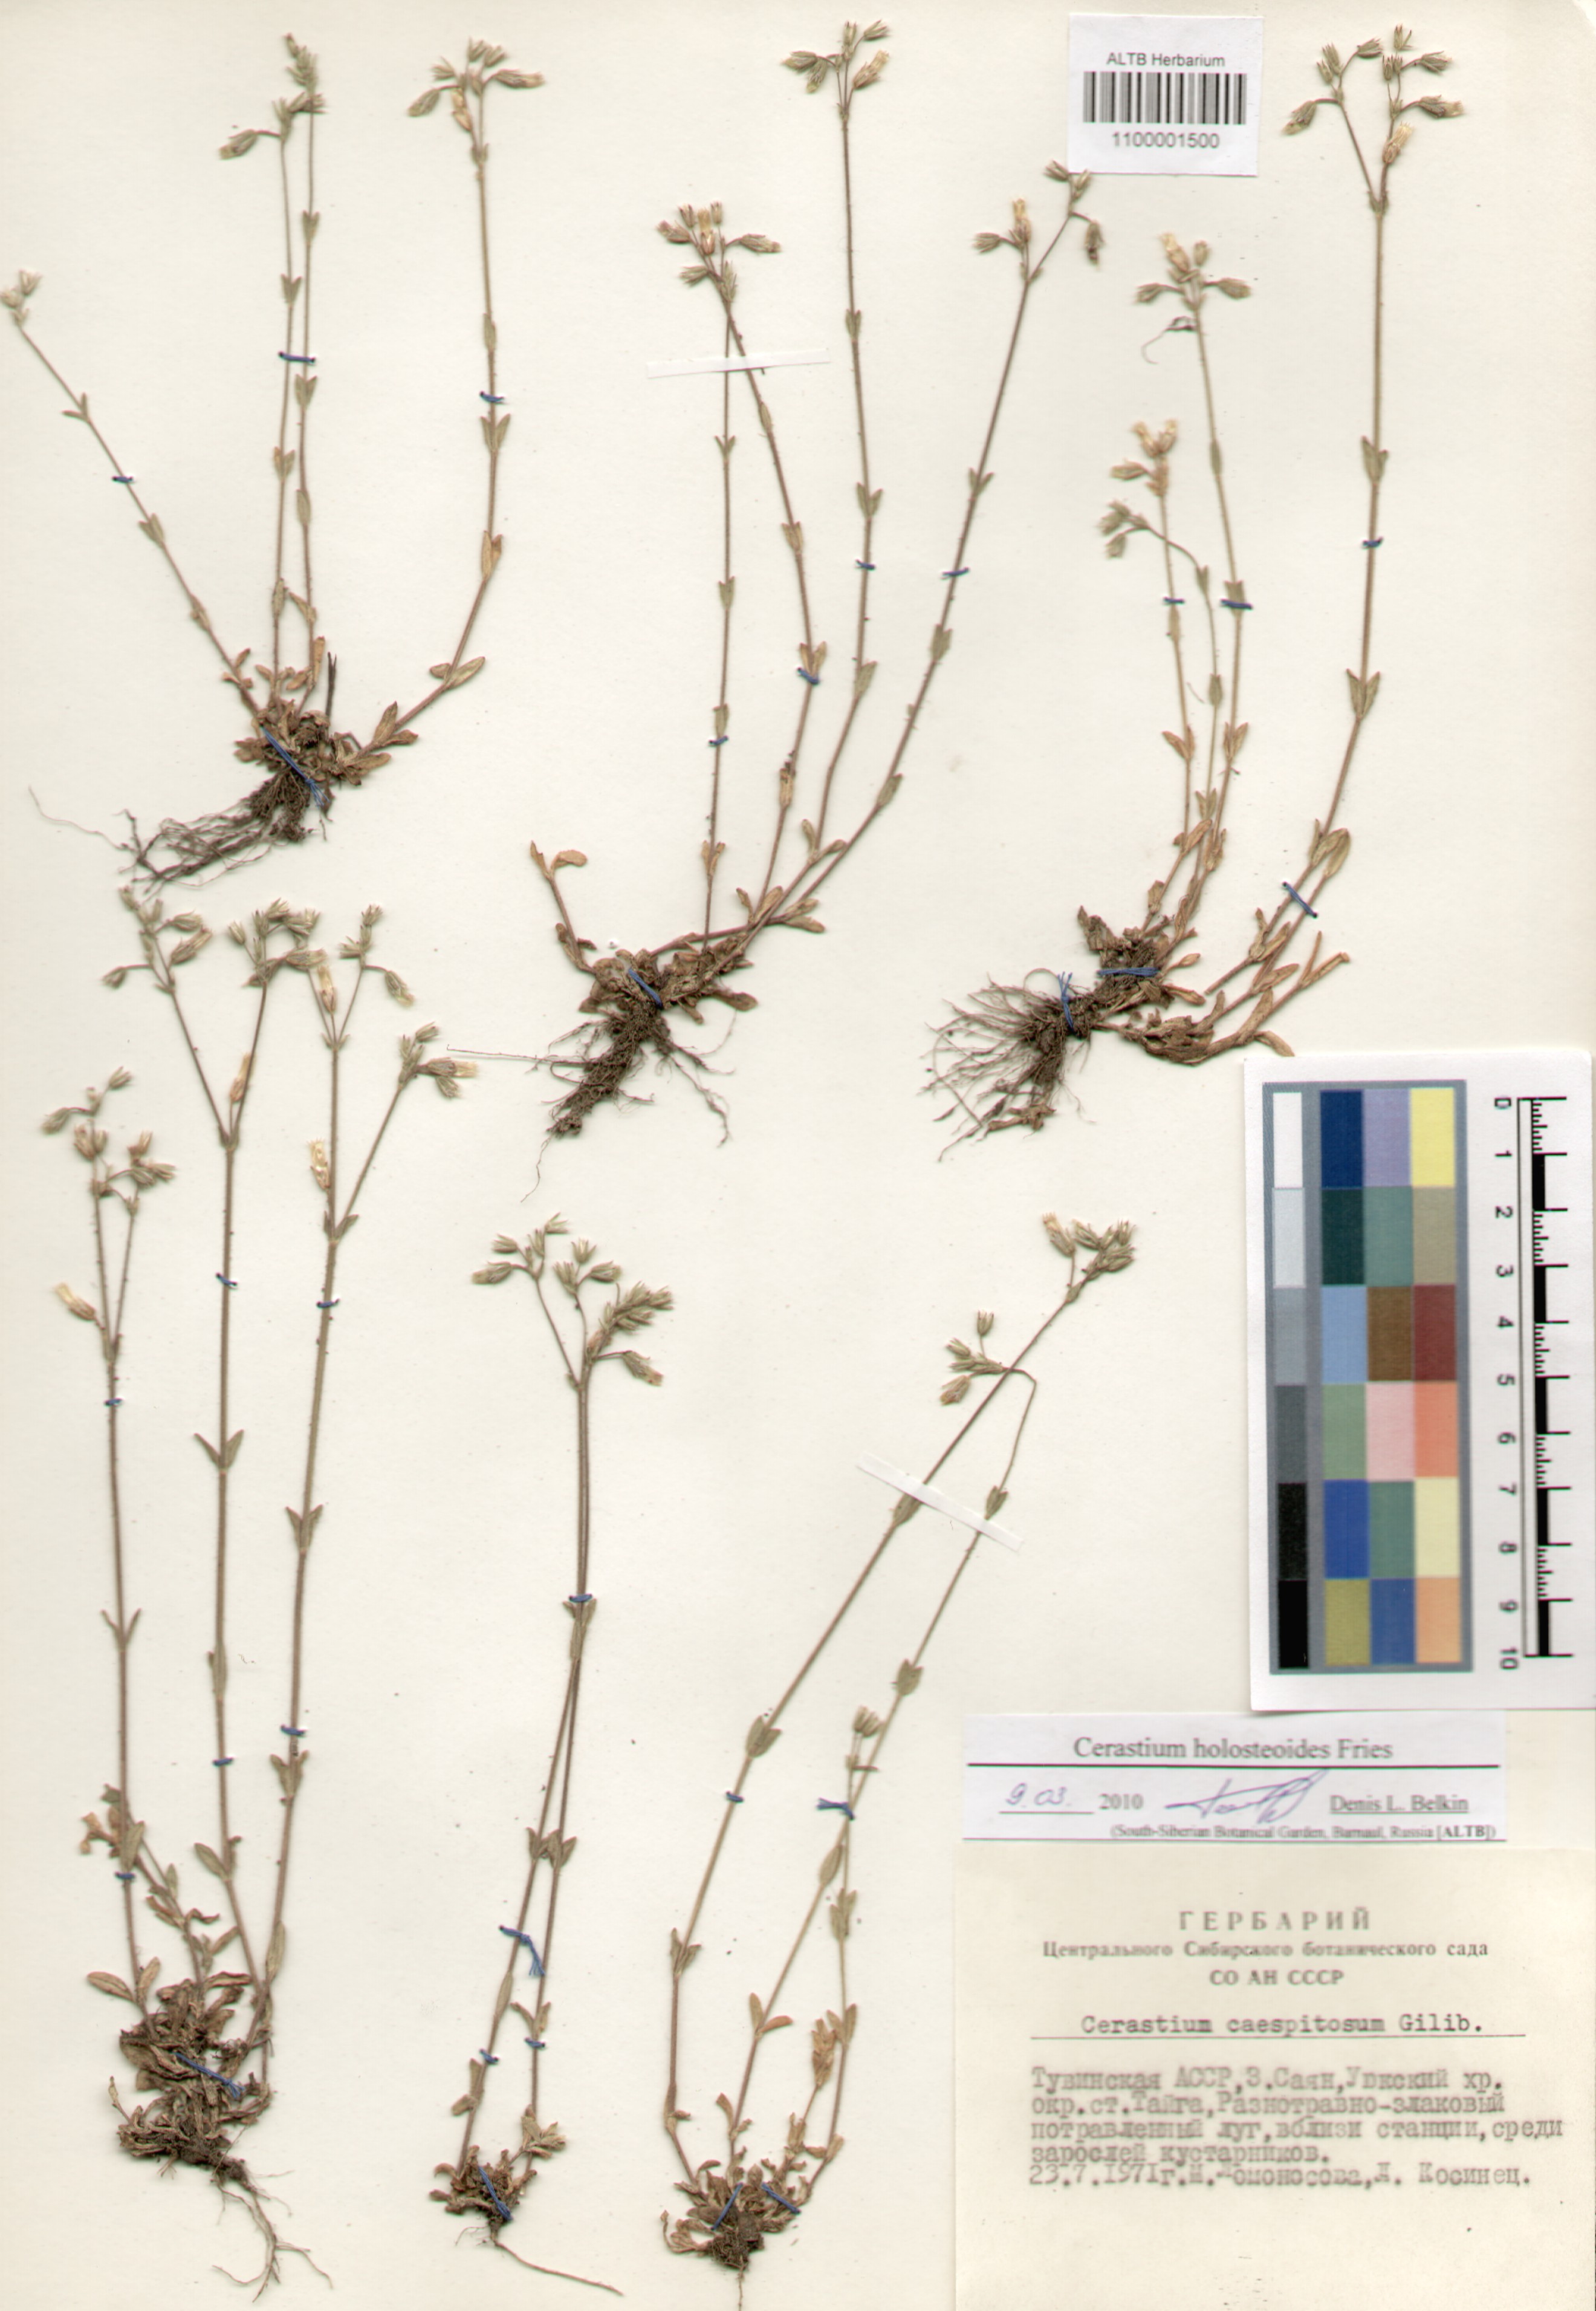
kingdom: Plantae
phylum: Tracheophyta
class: Magnoliopsida
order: Caryophyllales
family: Caryophyllaceae
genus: Cerastium
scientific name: Cerastium holosteoides
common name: Big chickweed
